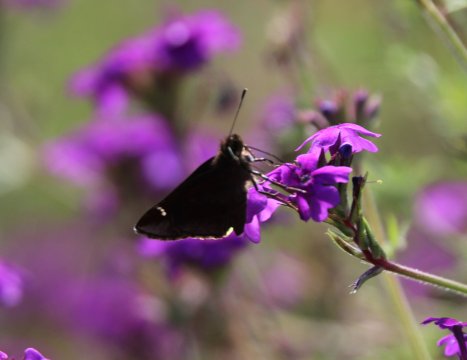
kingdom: Animalia
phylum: Arthropoda
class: Insecta
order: Lepidoptera
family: Hesperiidae
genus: Lerema
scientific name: Lerema accius
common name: Clouded Skipper
